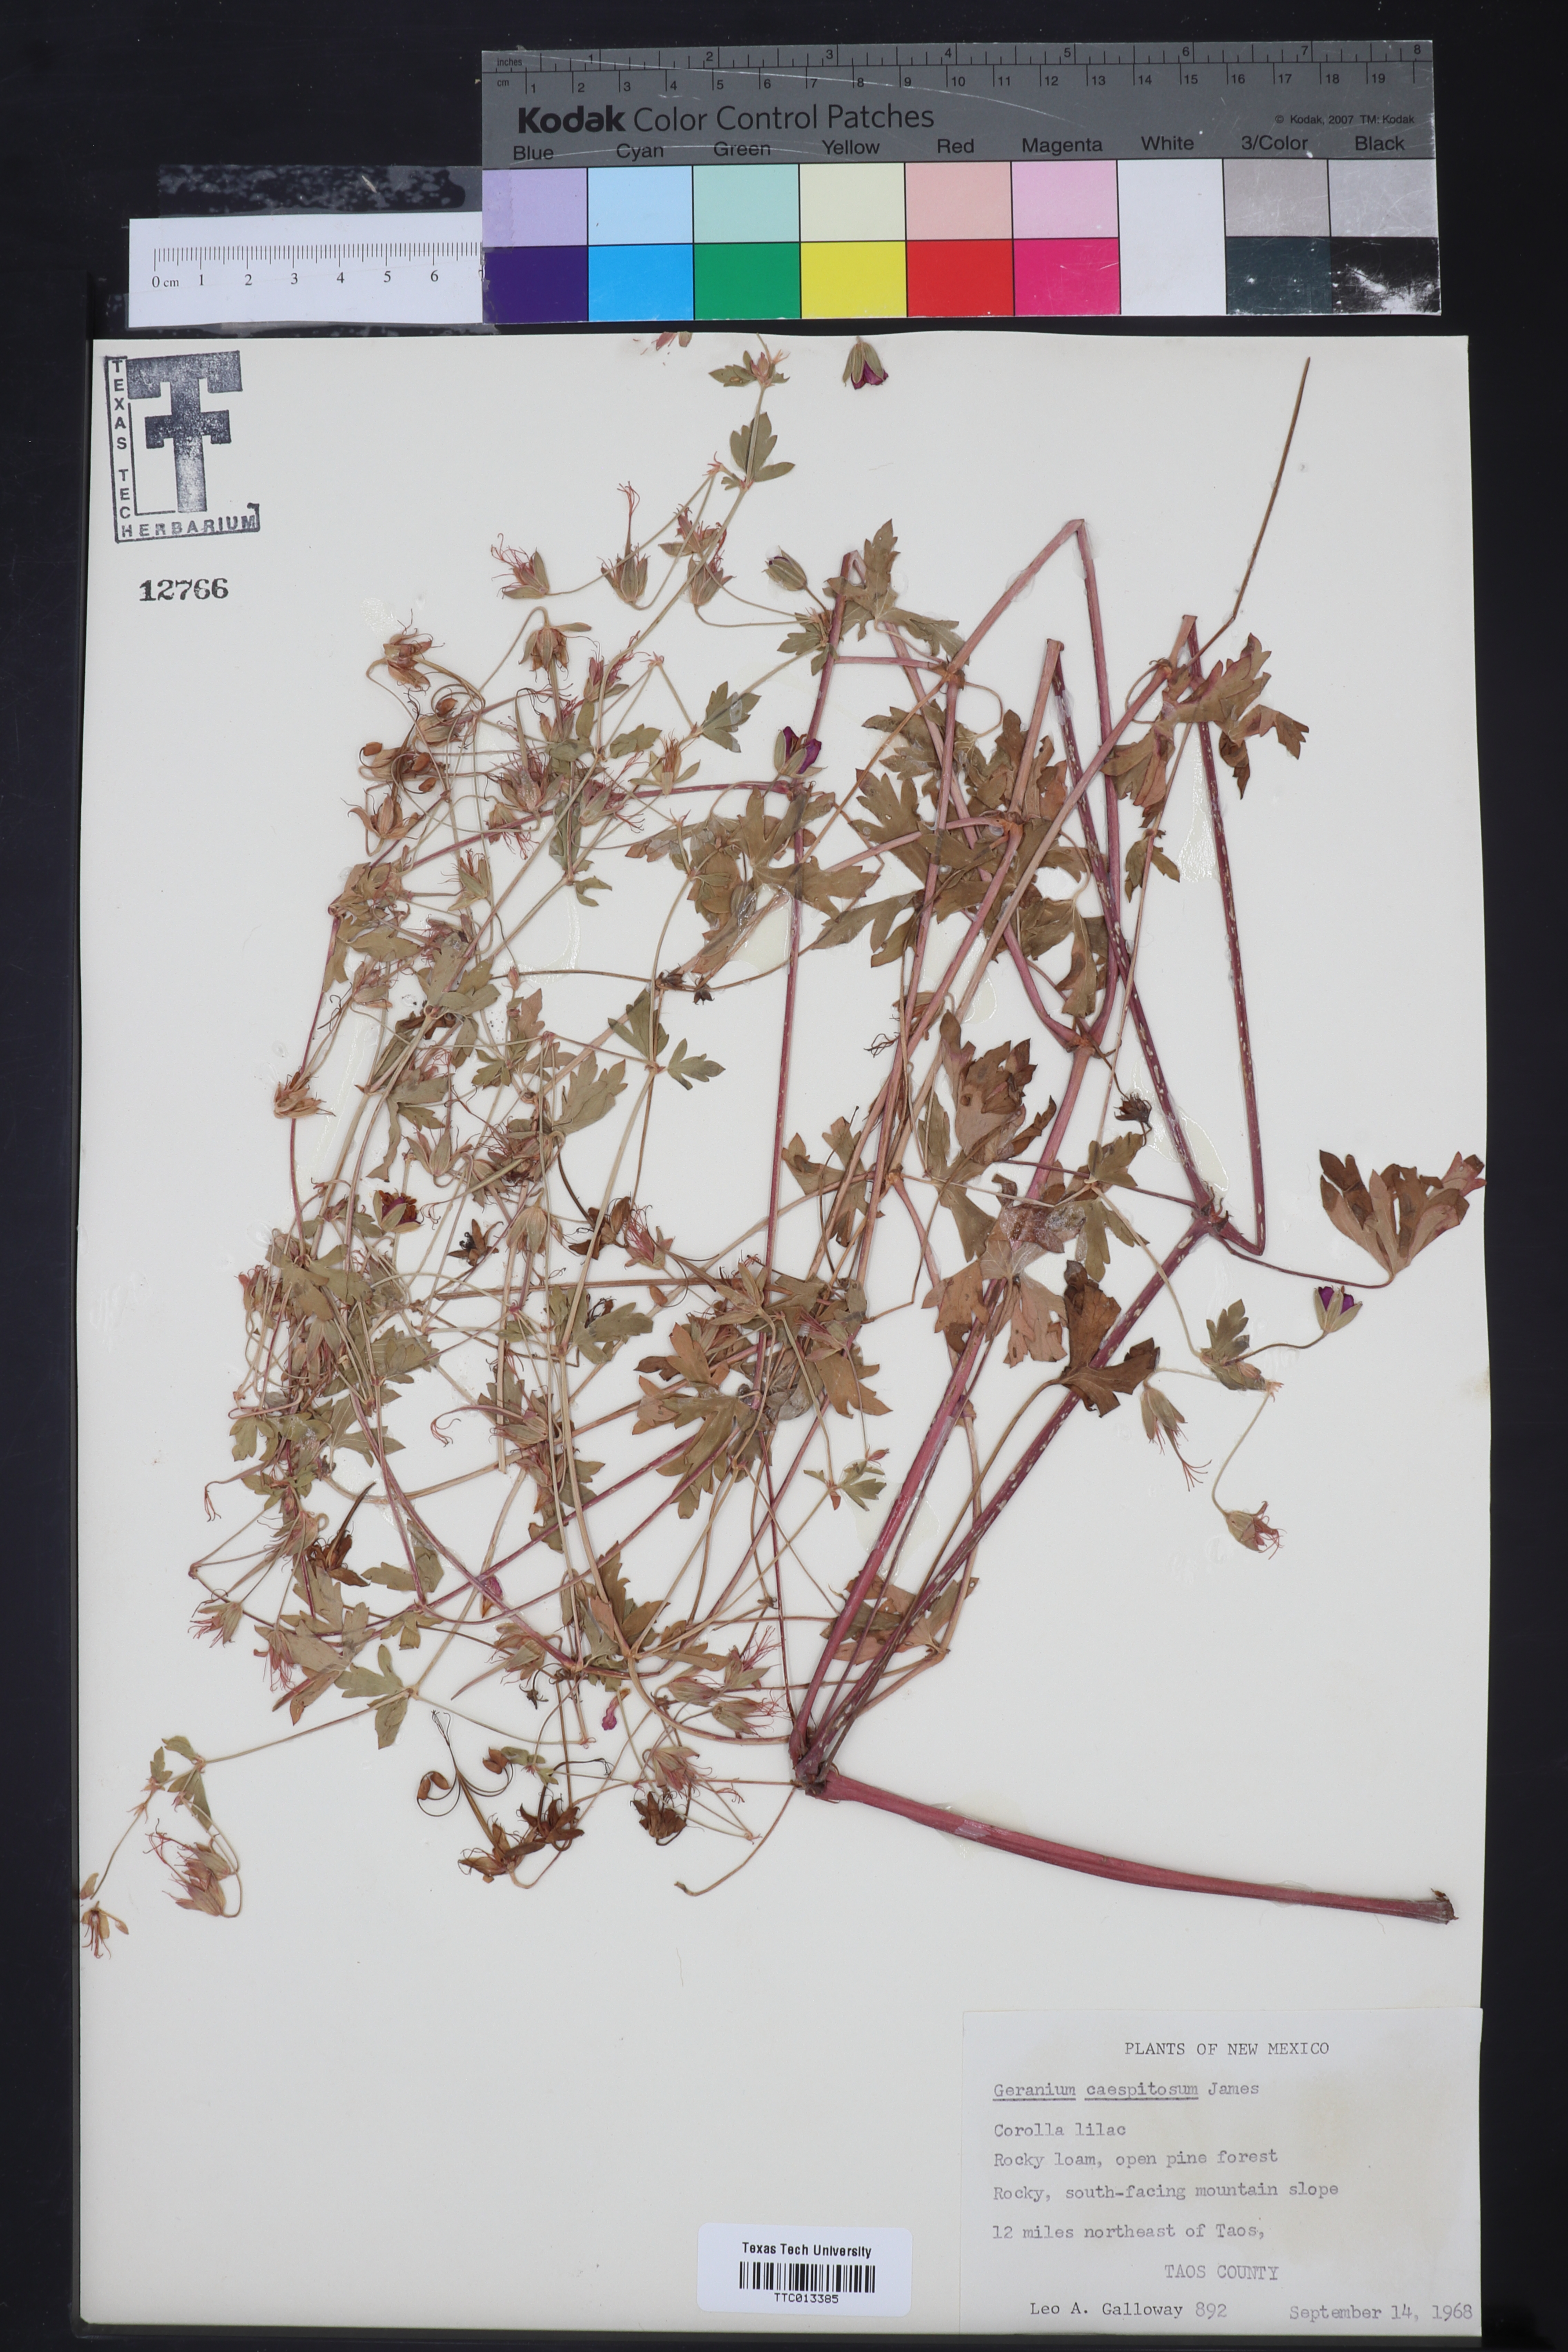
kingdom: Plantae
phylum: Tracheophyta
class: Magnoliopsida
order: Geraniales
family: Geraniaceae
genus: Geranium
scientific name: Geranium caespitosum
